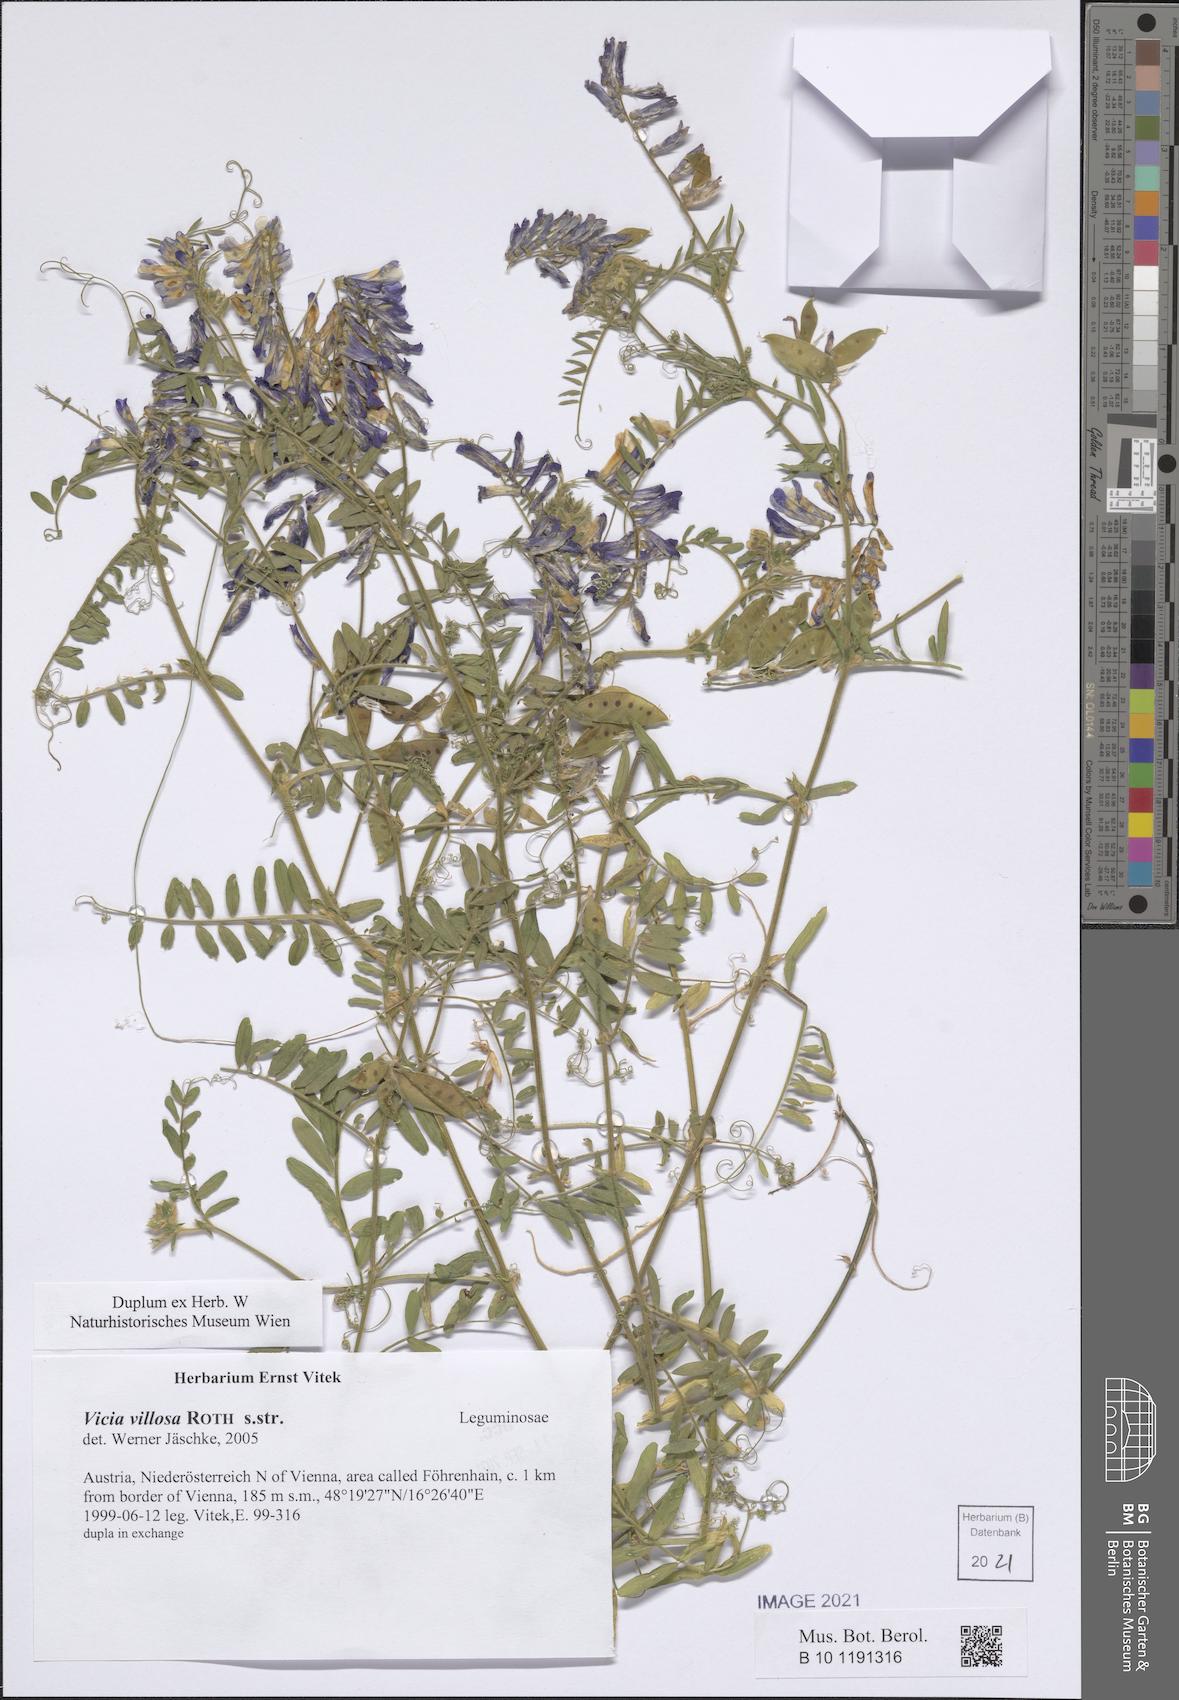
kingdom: Plantae
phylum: Tracheophyta
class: Magnoliopsida
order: Fabales
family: Fabaceae
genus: Vicia
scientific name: Vicia villosa
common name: Fodder vetch
